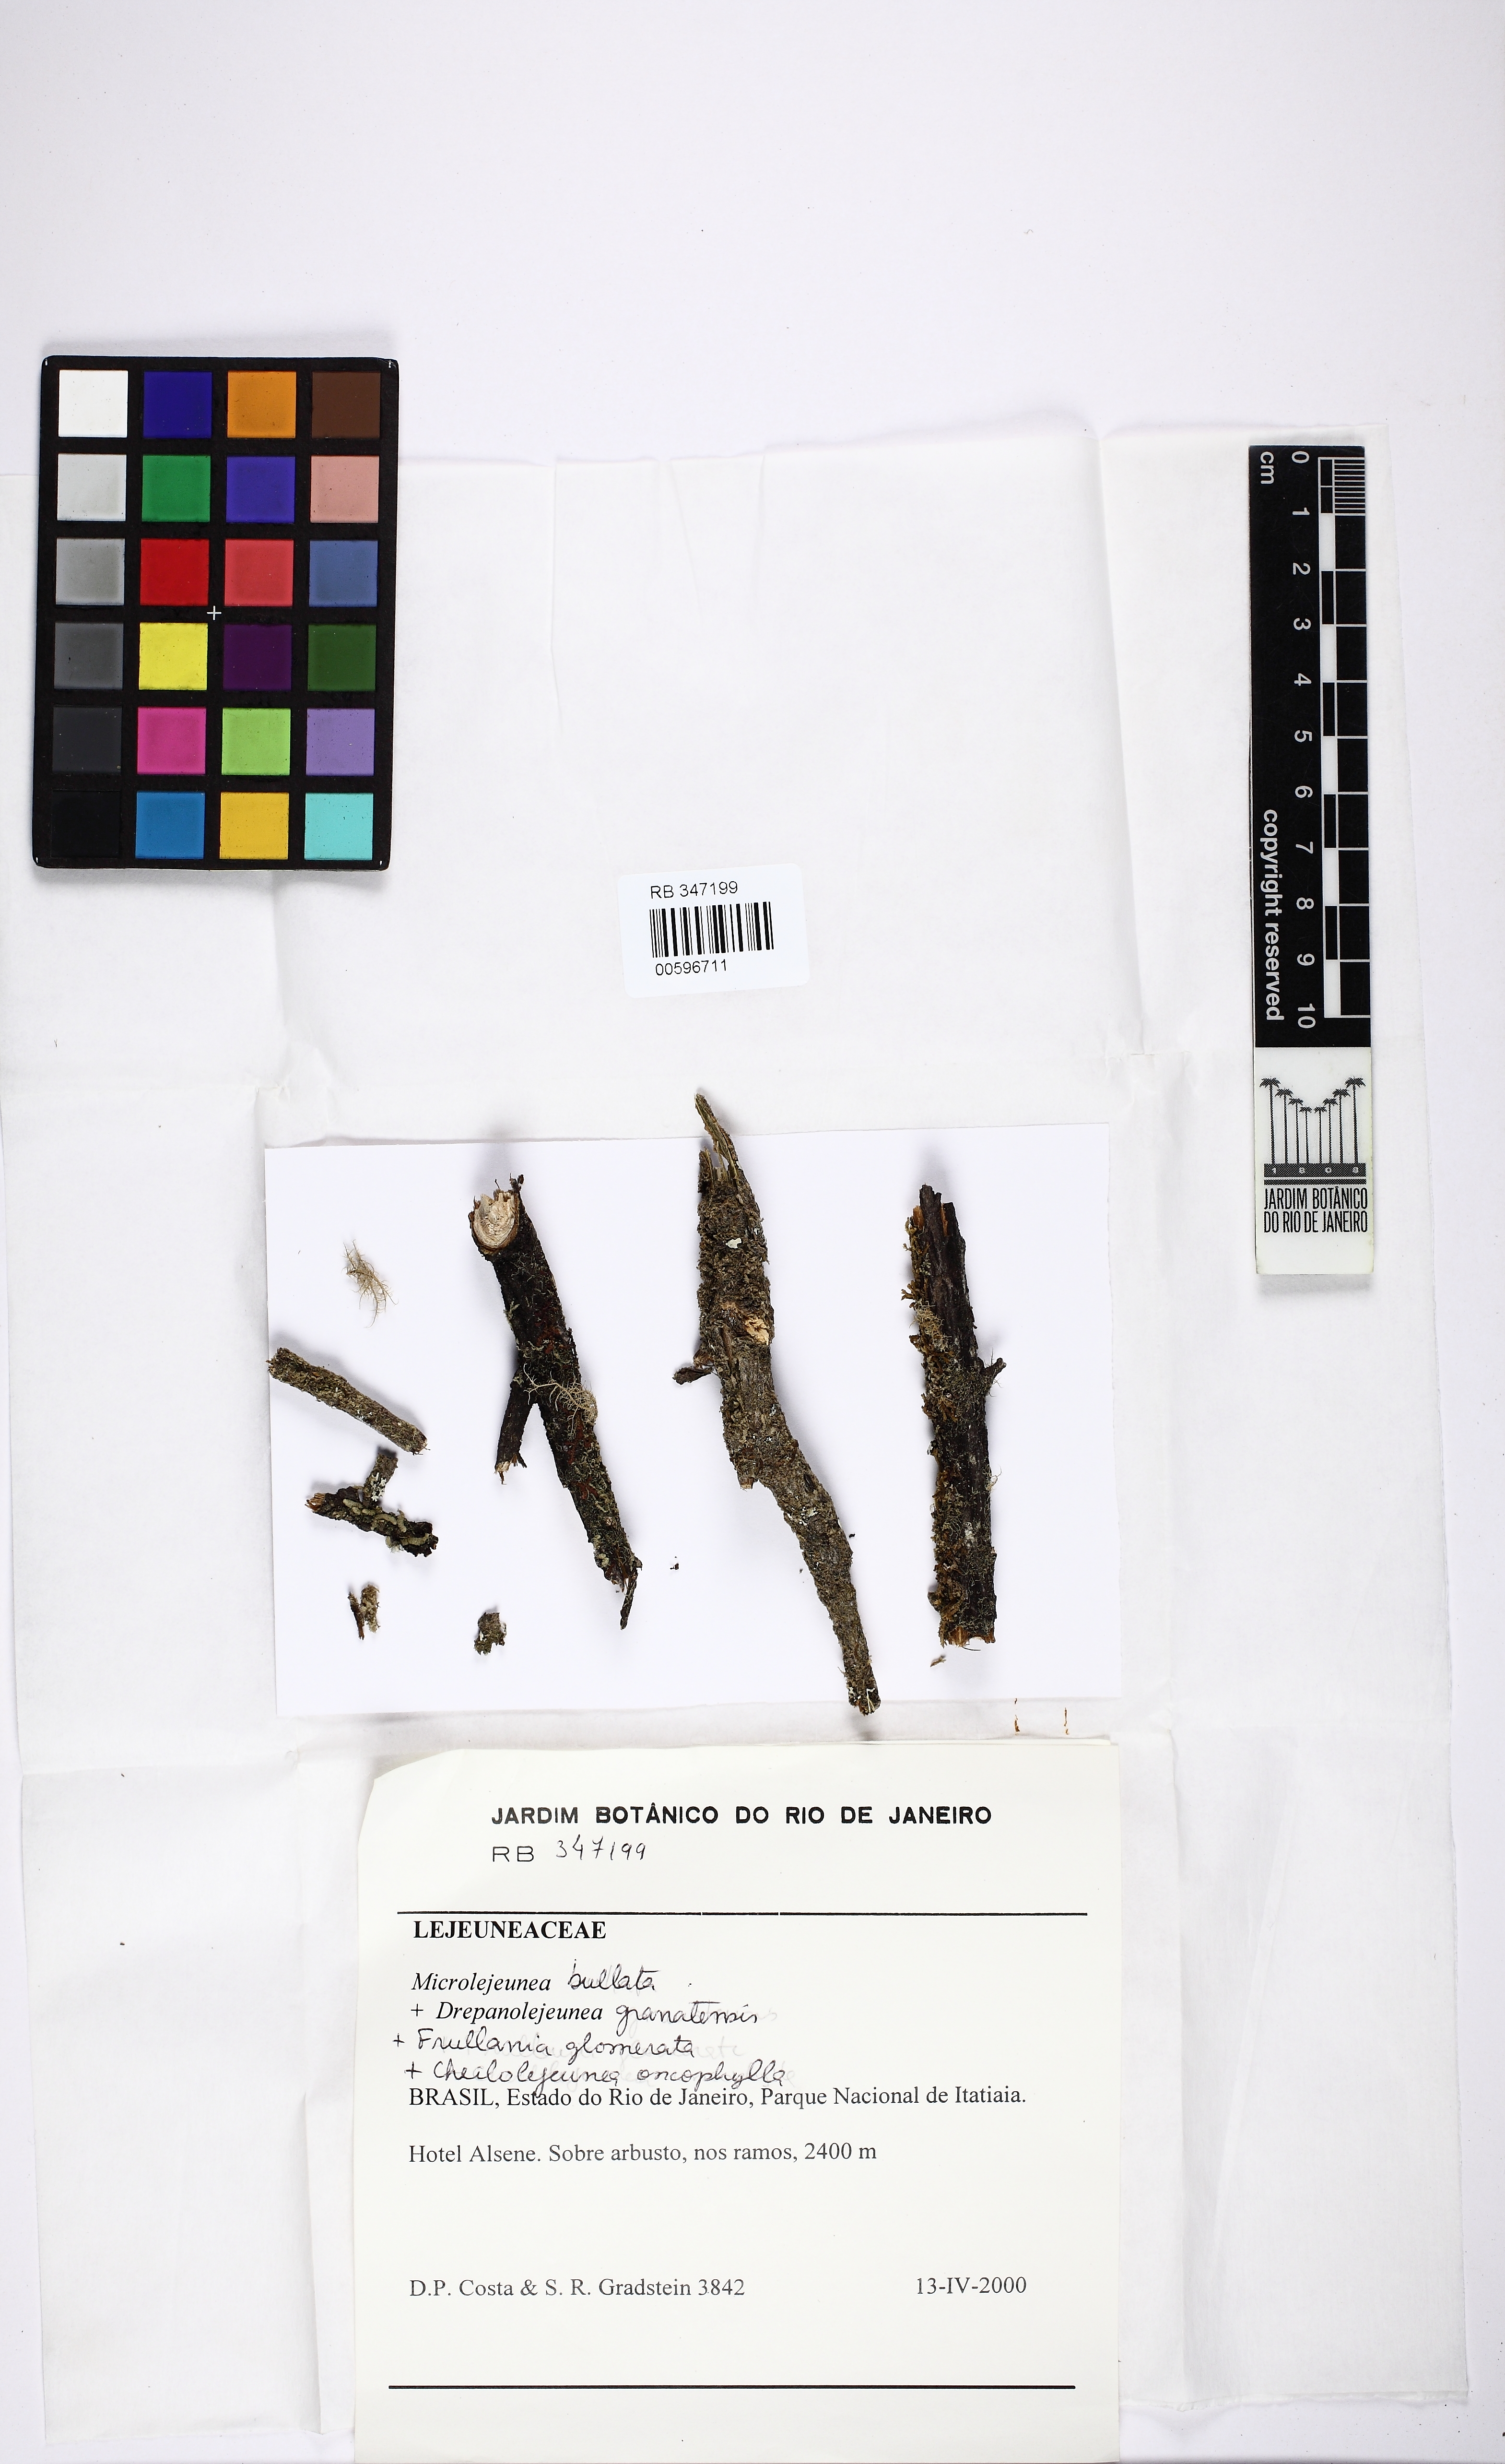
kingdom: Plantae
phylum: Marchantiophyta
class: Jungermanniopsida
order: Porellales
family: Lejeuneaceae
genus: Microlejeunea
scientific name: Microlejeunea bullata
